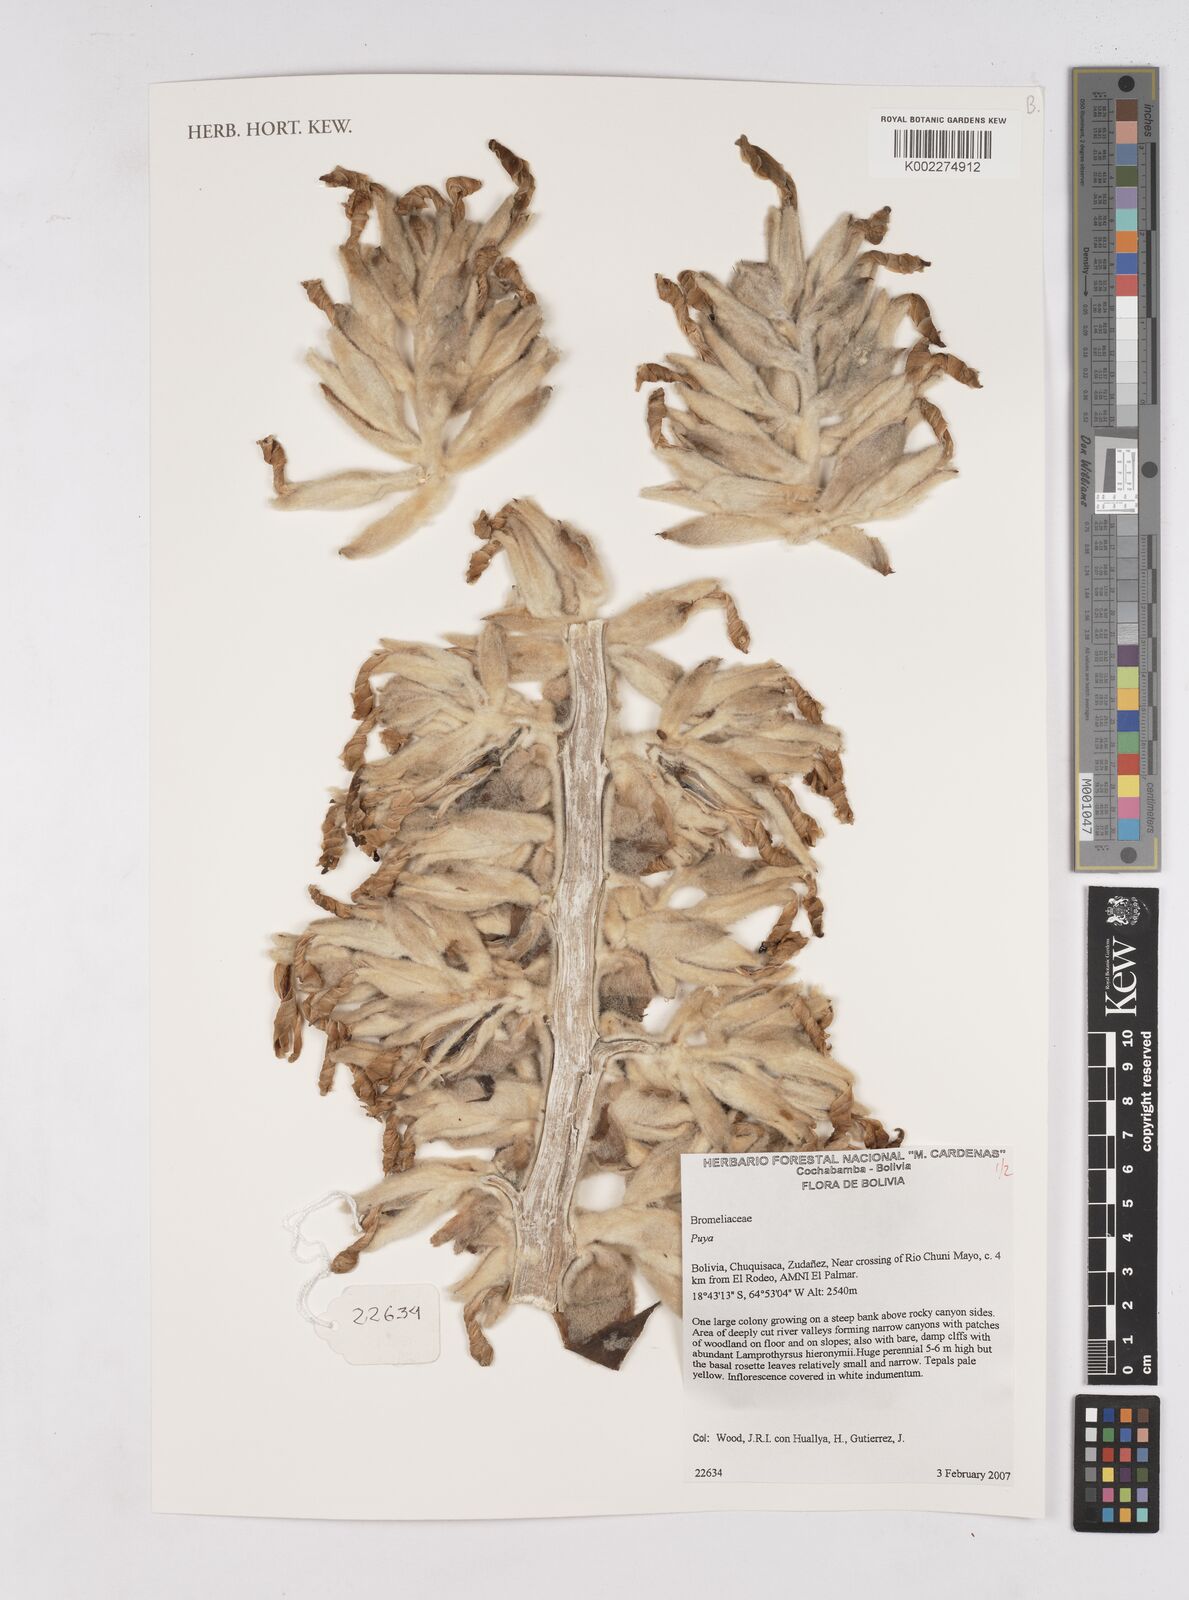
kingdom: Plantae
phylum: Tracheophyta
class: Liliopsida
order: Poales
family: Bromeliaceae
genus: Puya
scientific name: Puya
